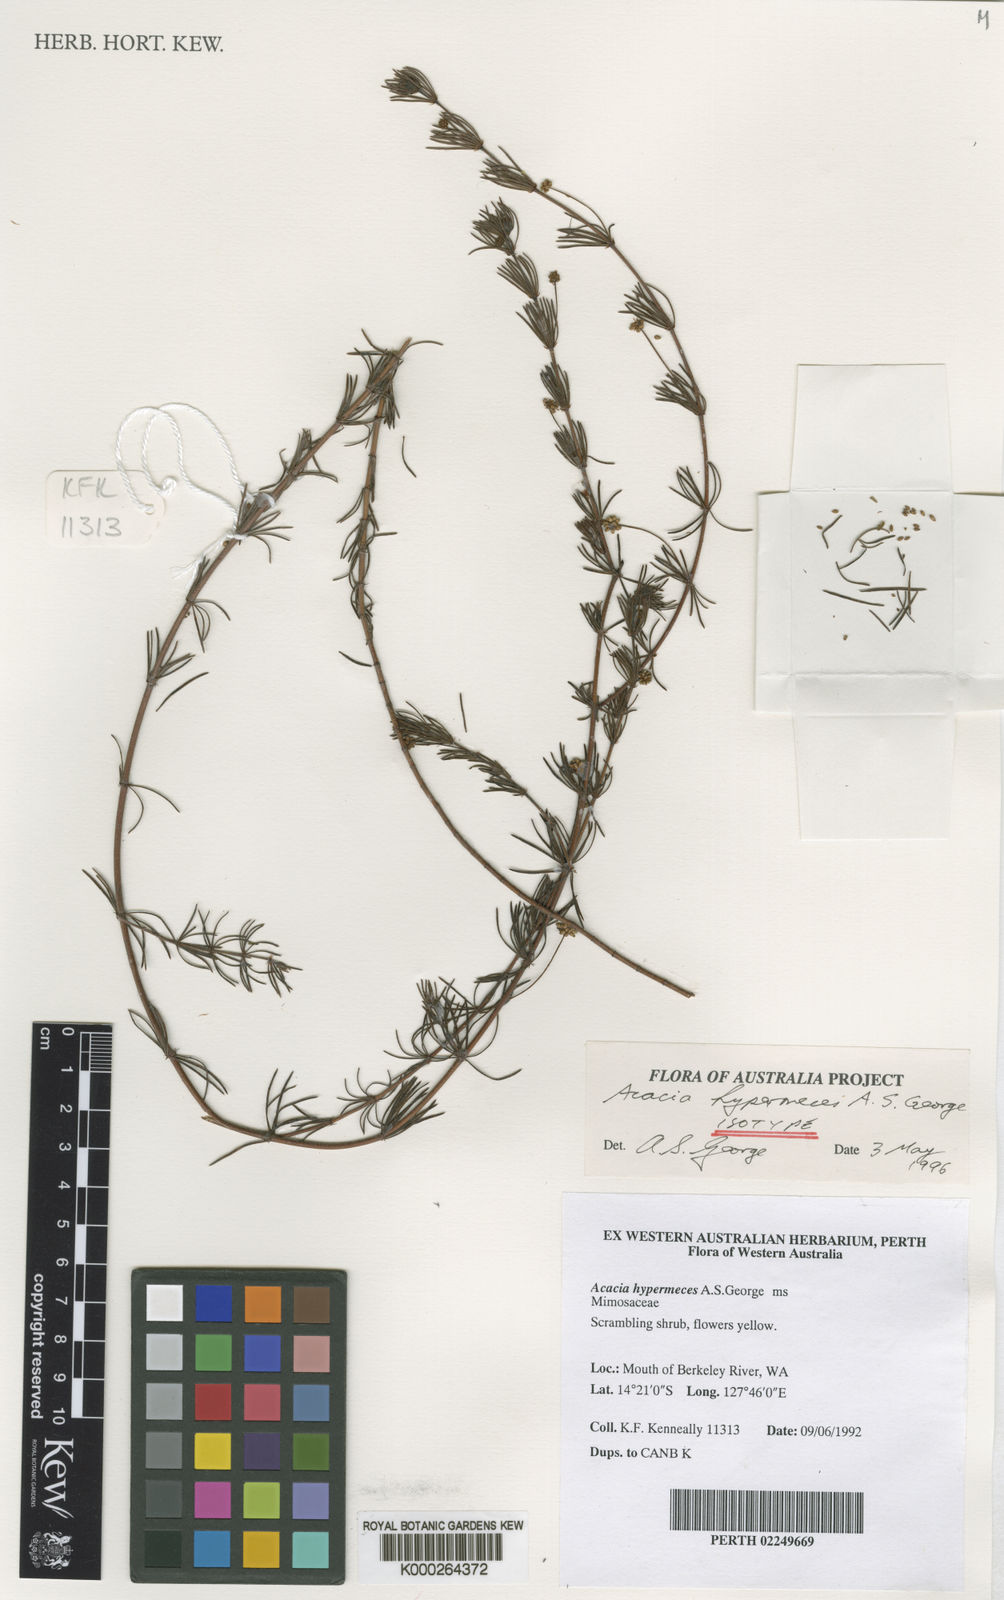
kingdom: Plantae
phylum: Tracheophyta
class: Magnoliopsida
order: Fabales
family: Fabaceae
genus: Acacia
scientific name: Acacia hypermeces
